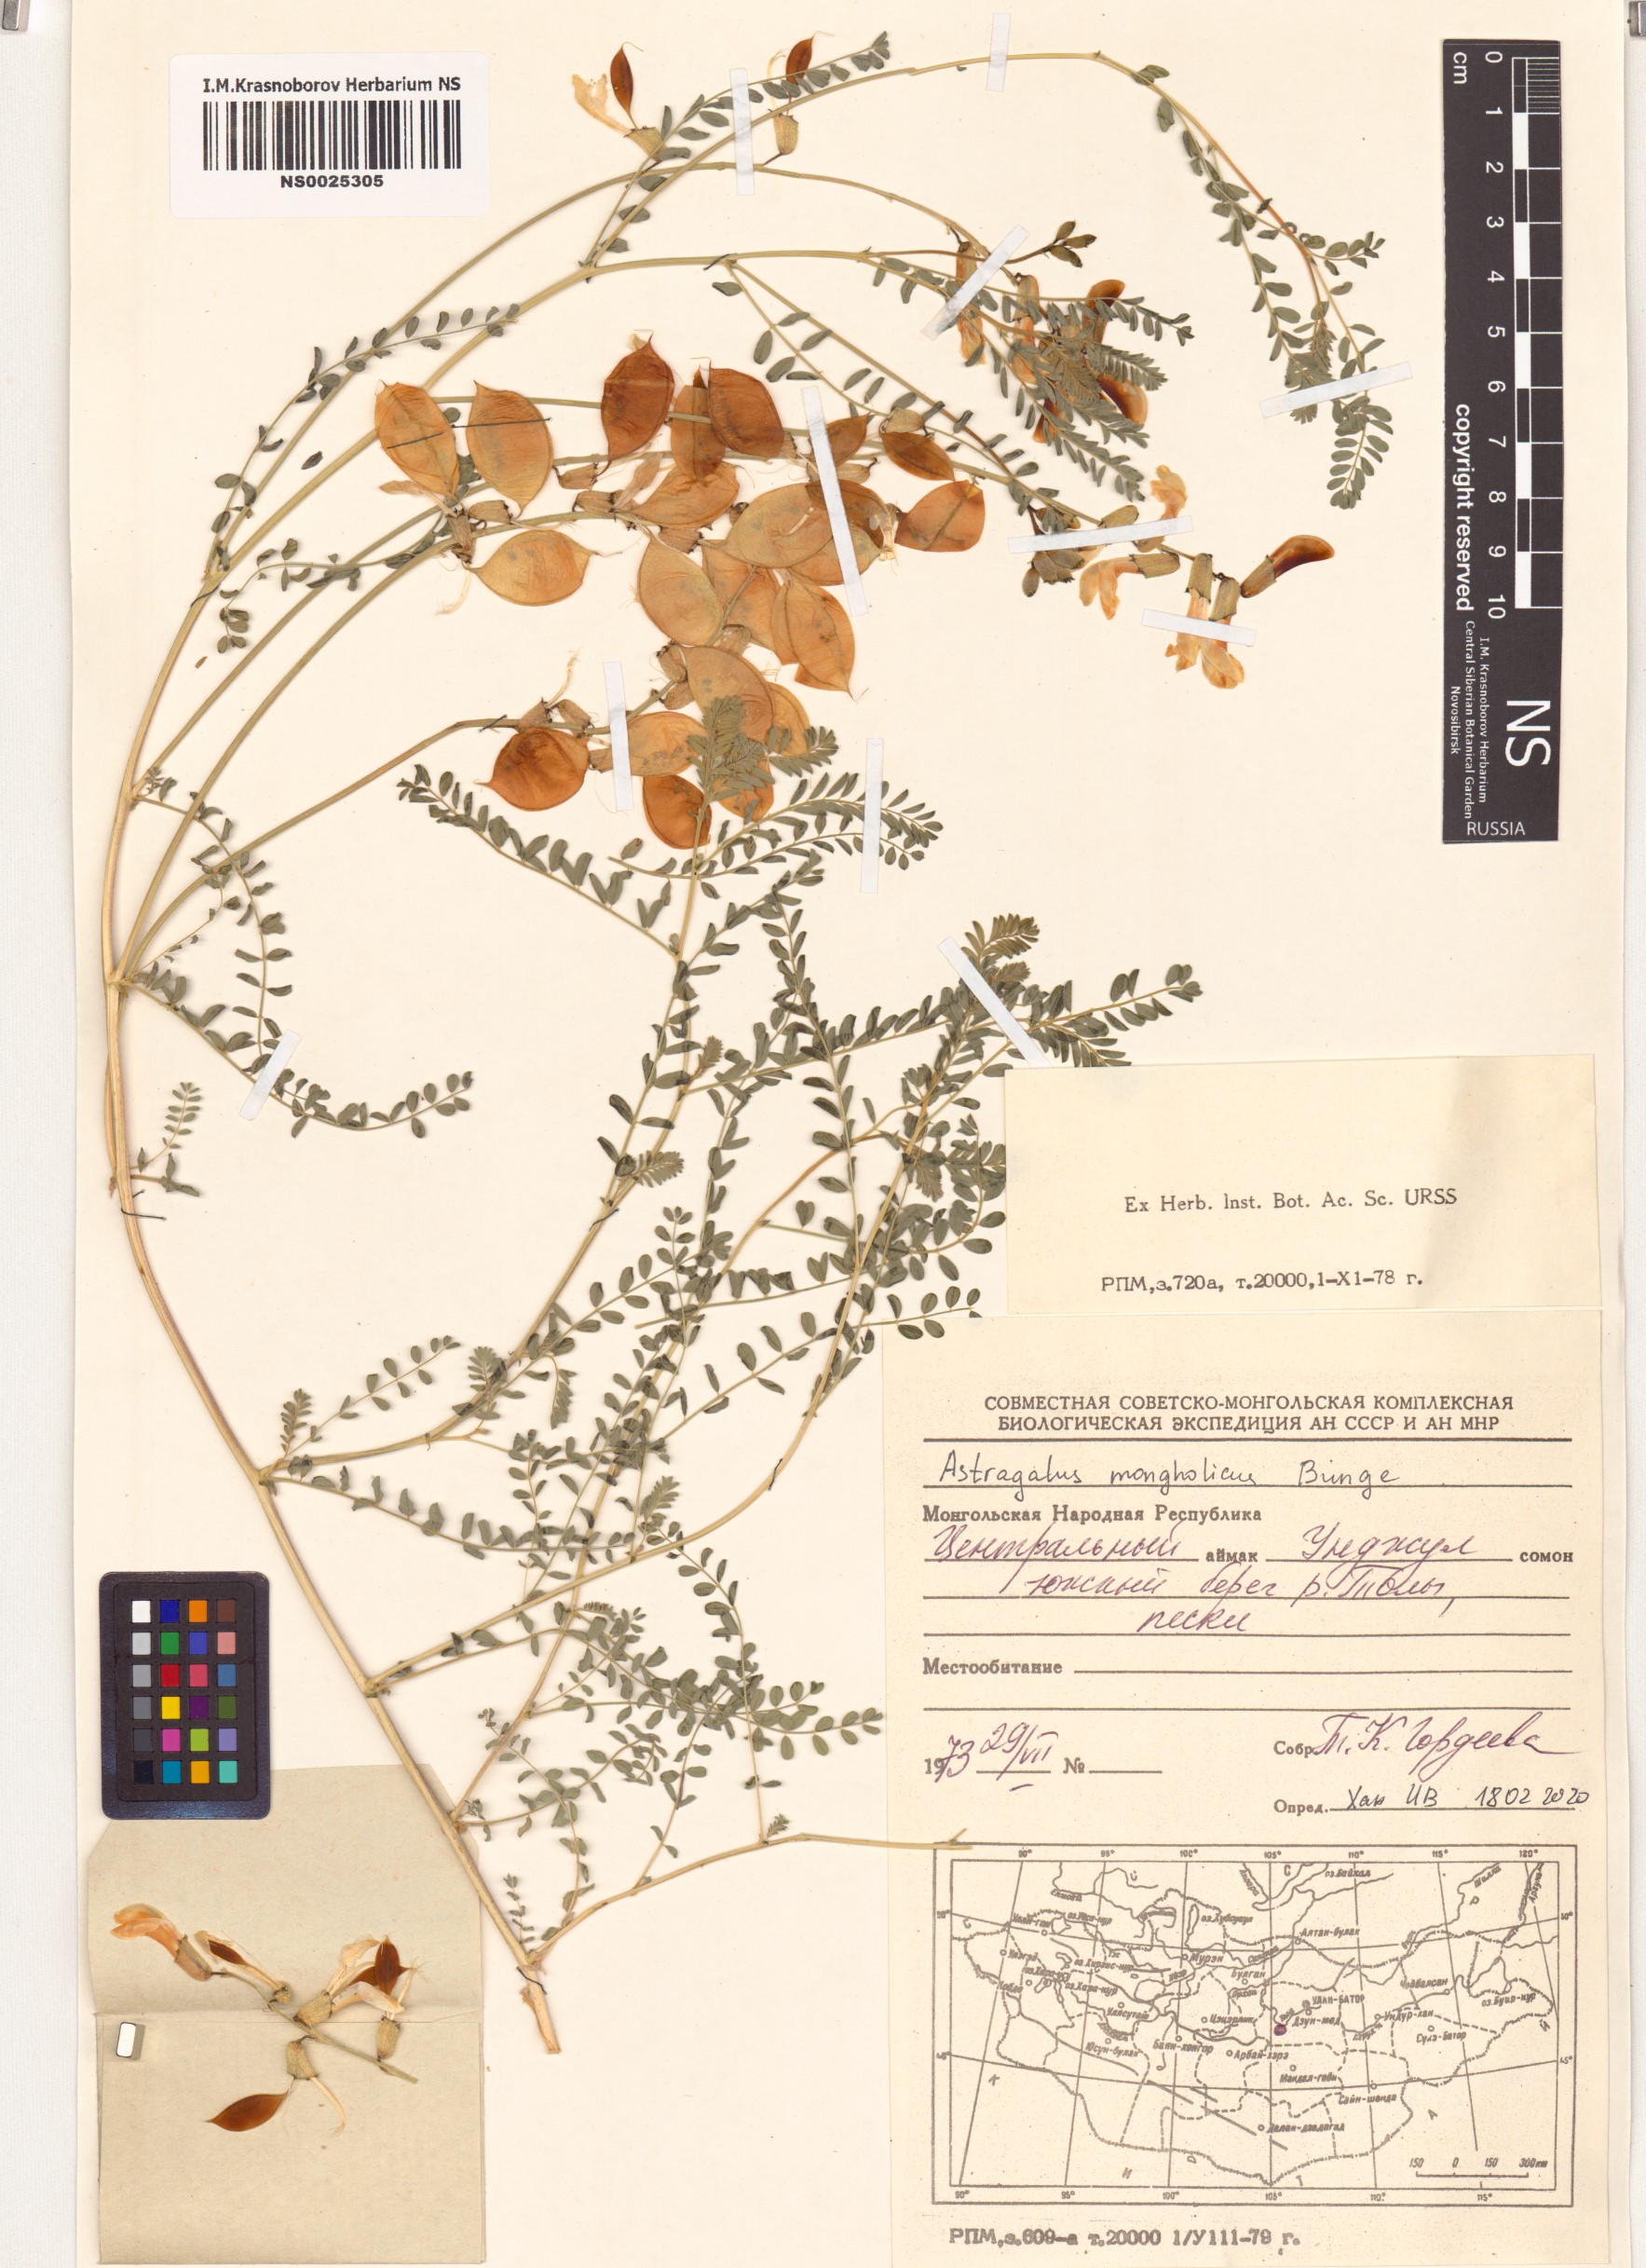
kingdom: Plantae
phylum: Tracheophyta
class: Magnoliopsida
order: Fabales
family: Fabaceae
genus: Astragalus
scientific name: Astragalus mongholicus
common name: Membranous milk-vetch
